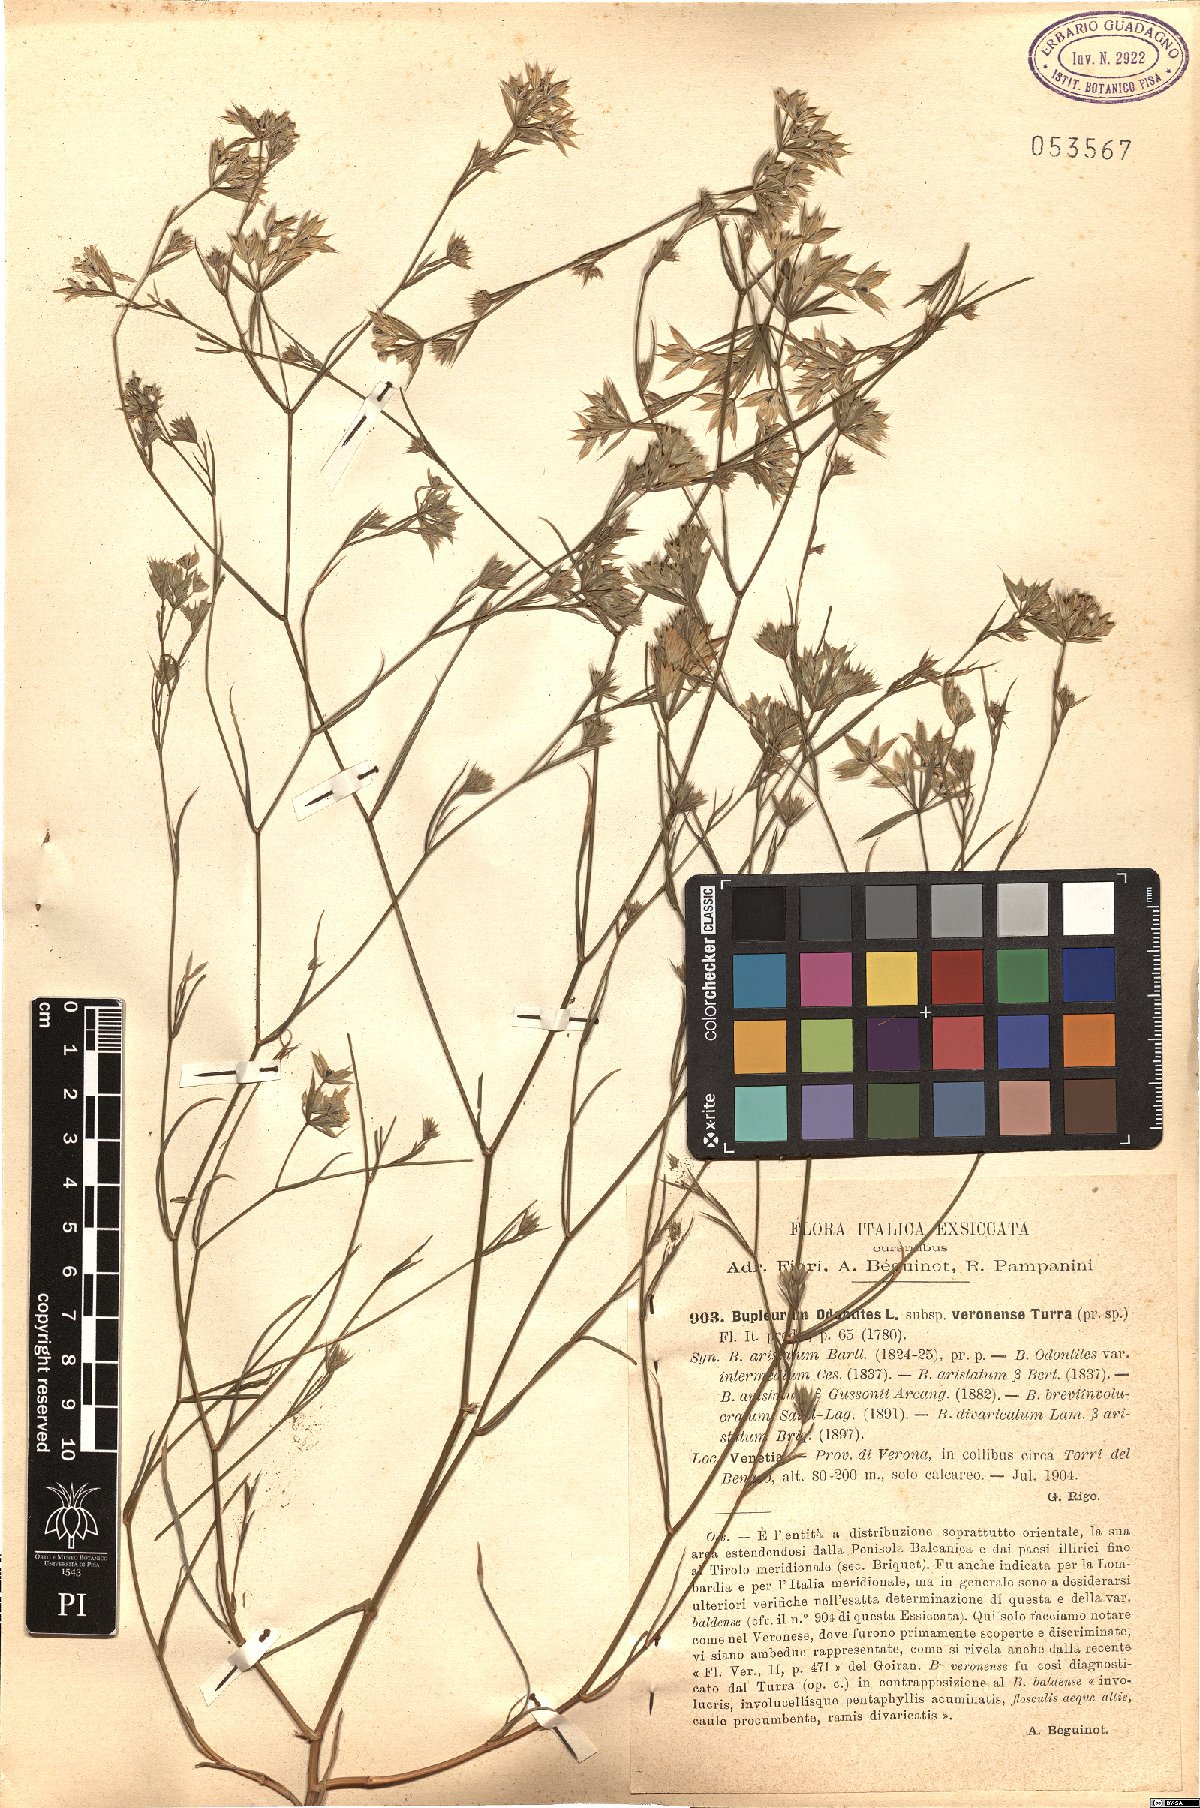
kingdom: Plantae
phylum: Tracheophyta
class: Magnoliopsida
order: Apiales
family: Apiaceae
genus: Bupleurum
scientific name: Bupleurum odontites
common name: Narrowleaf thorow wax
